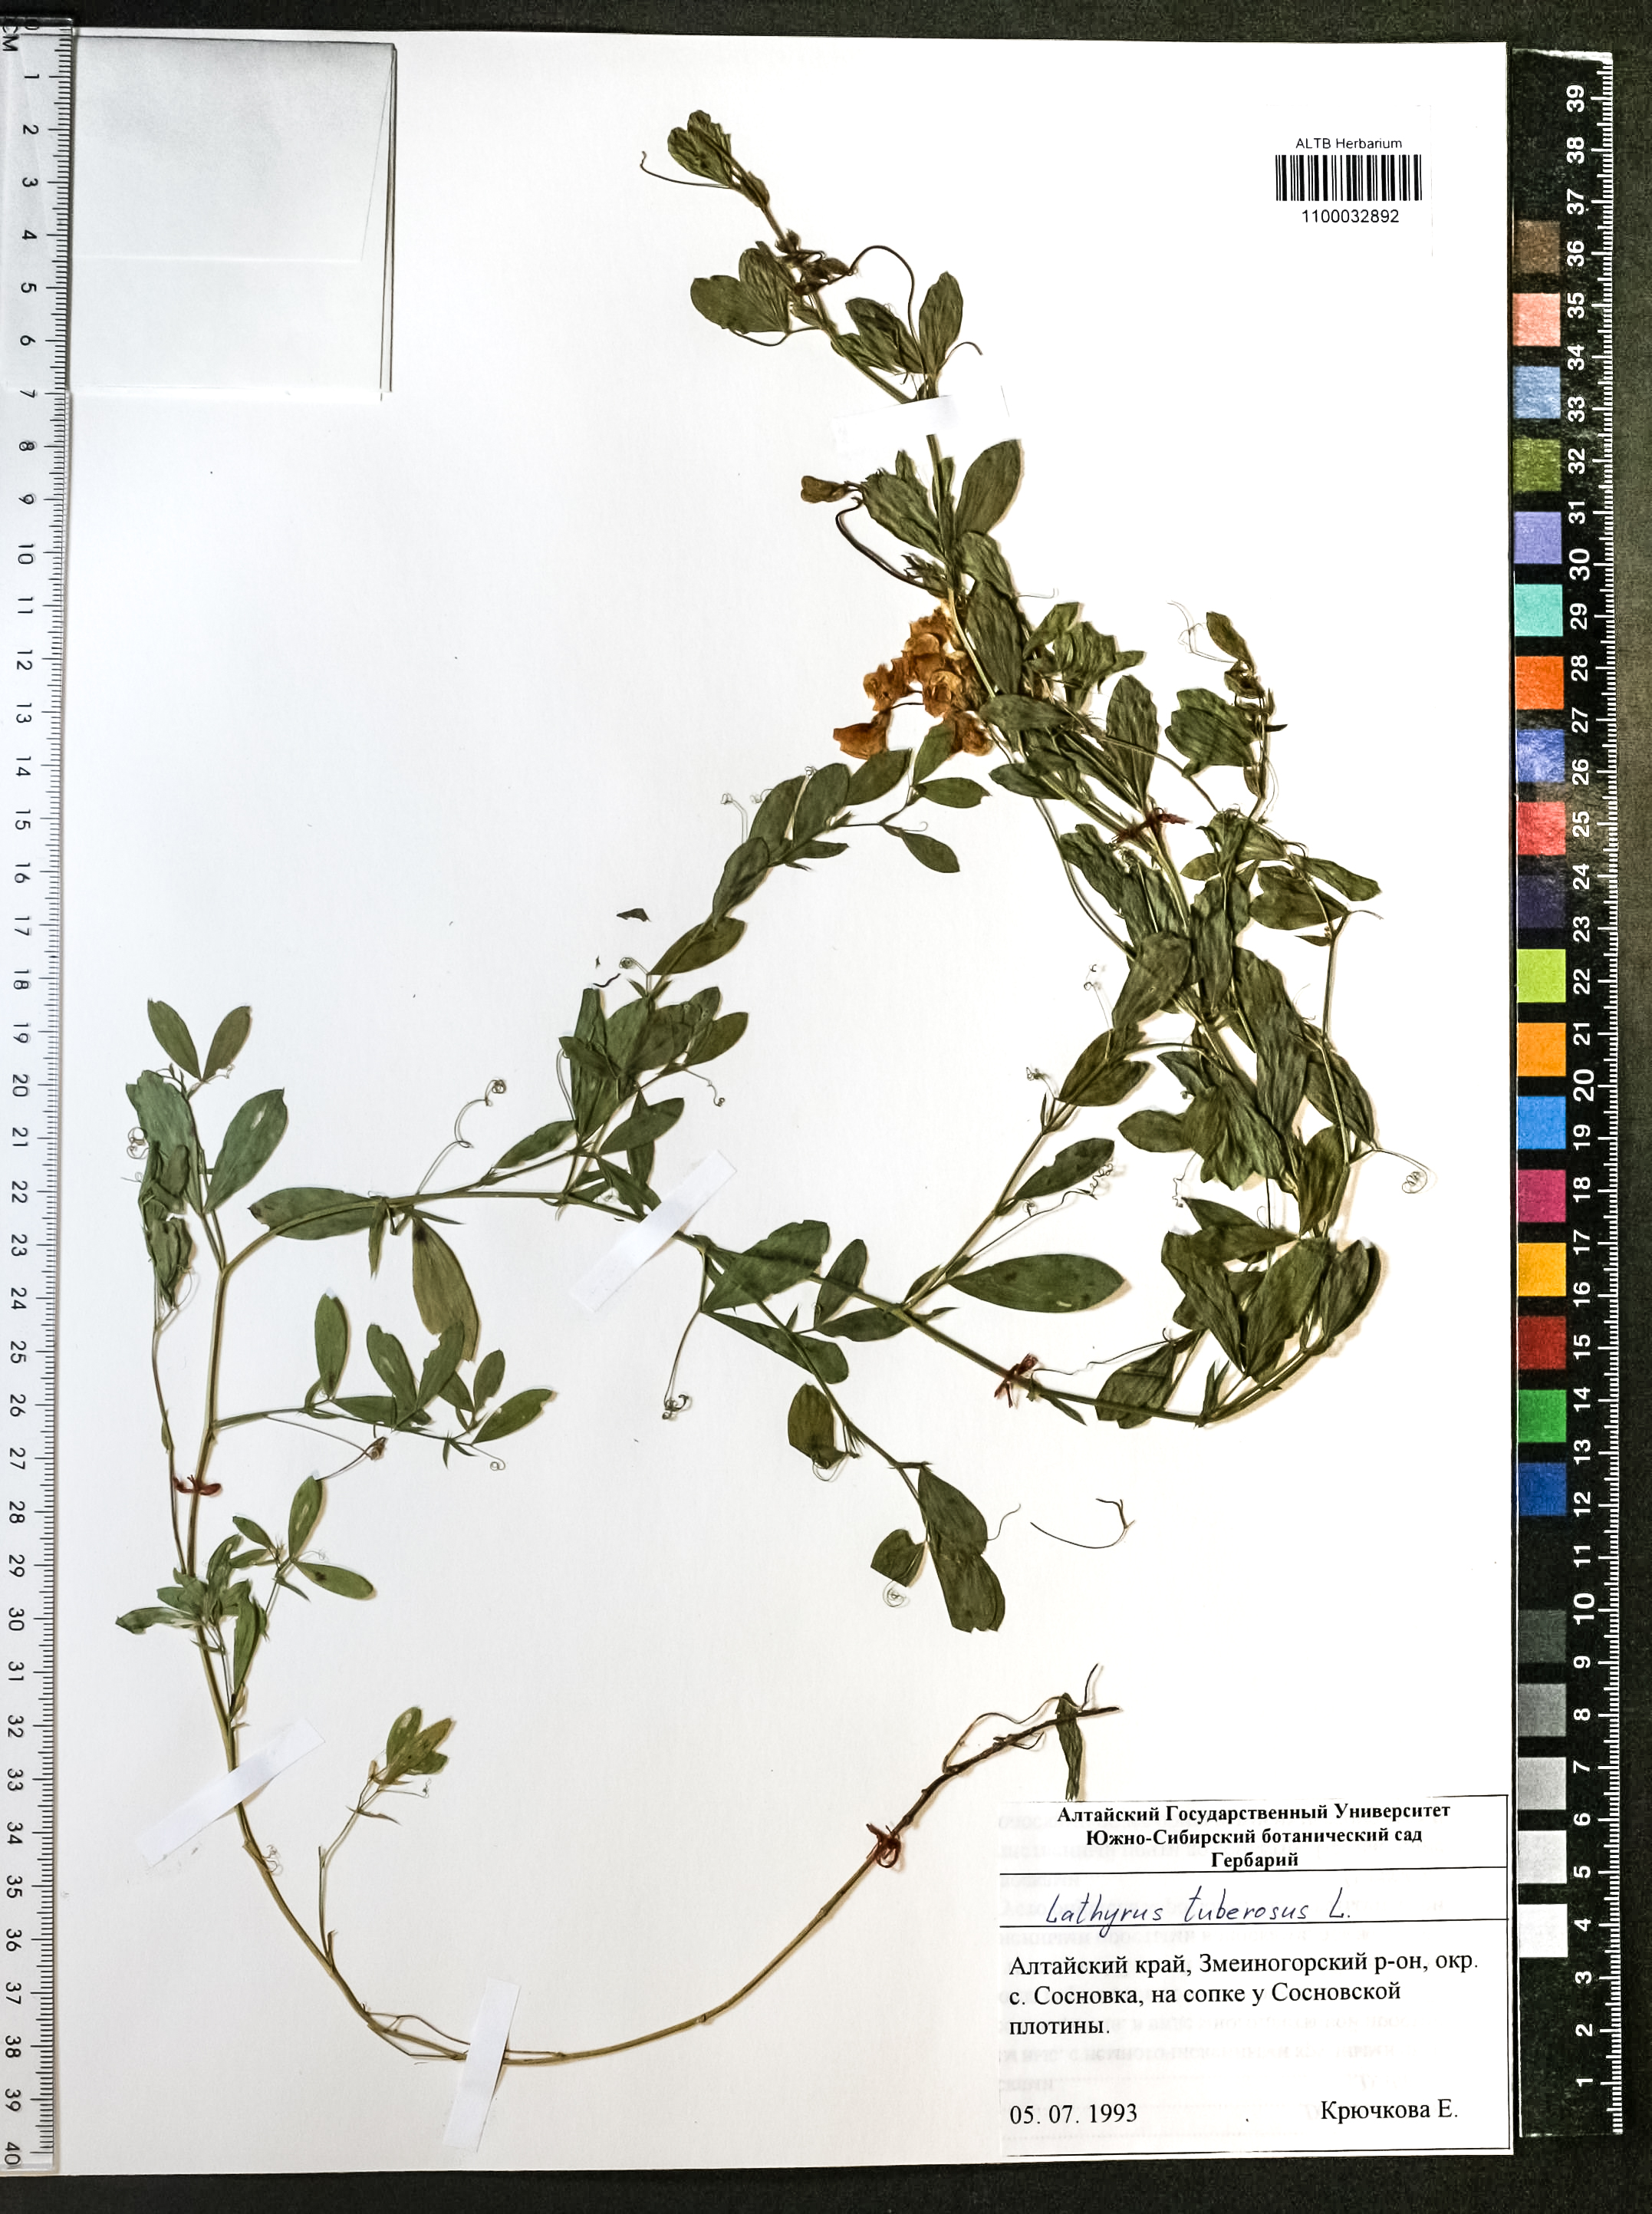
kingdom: Plantae
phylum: Tracheophyta
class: Magnoliopsida
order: Fabales
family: Fabaceae
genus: Lathyrus
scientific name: Lathyrus tuberosus
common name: Tuberous pea
